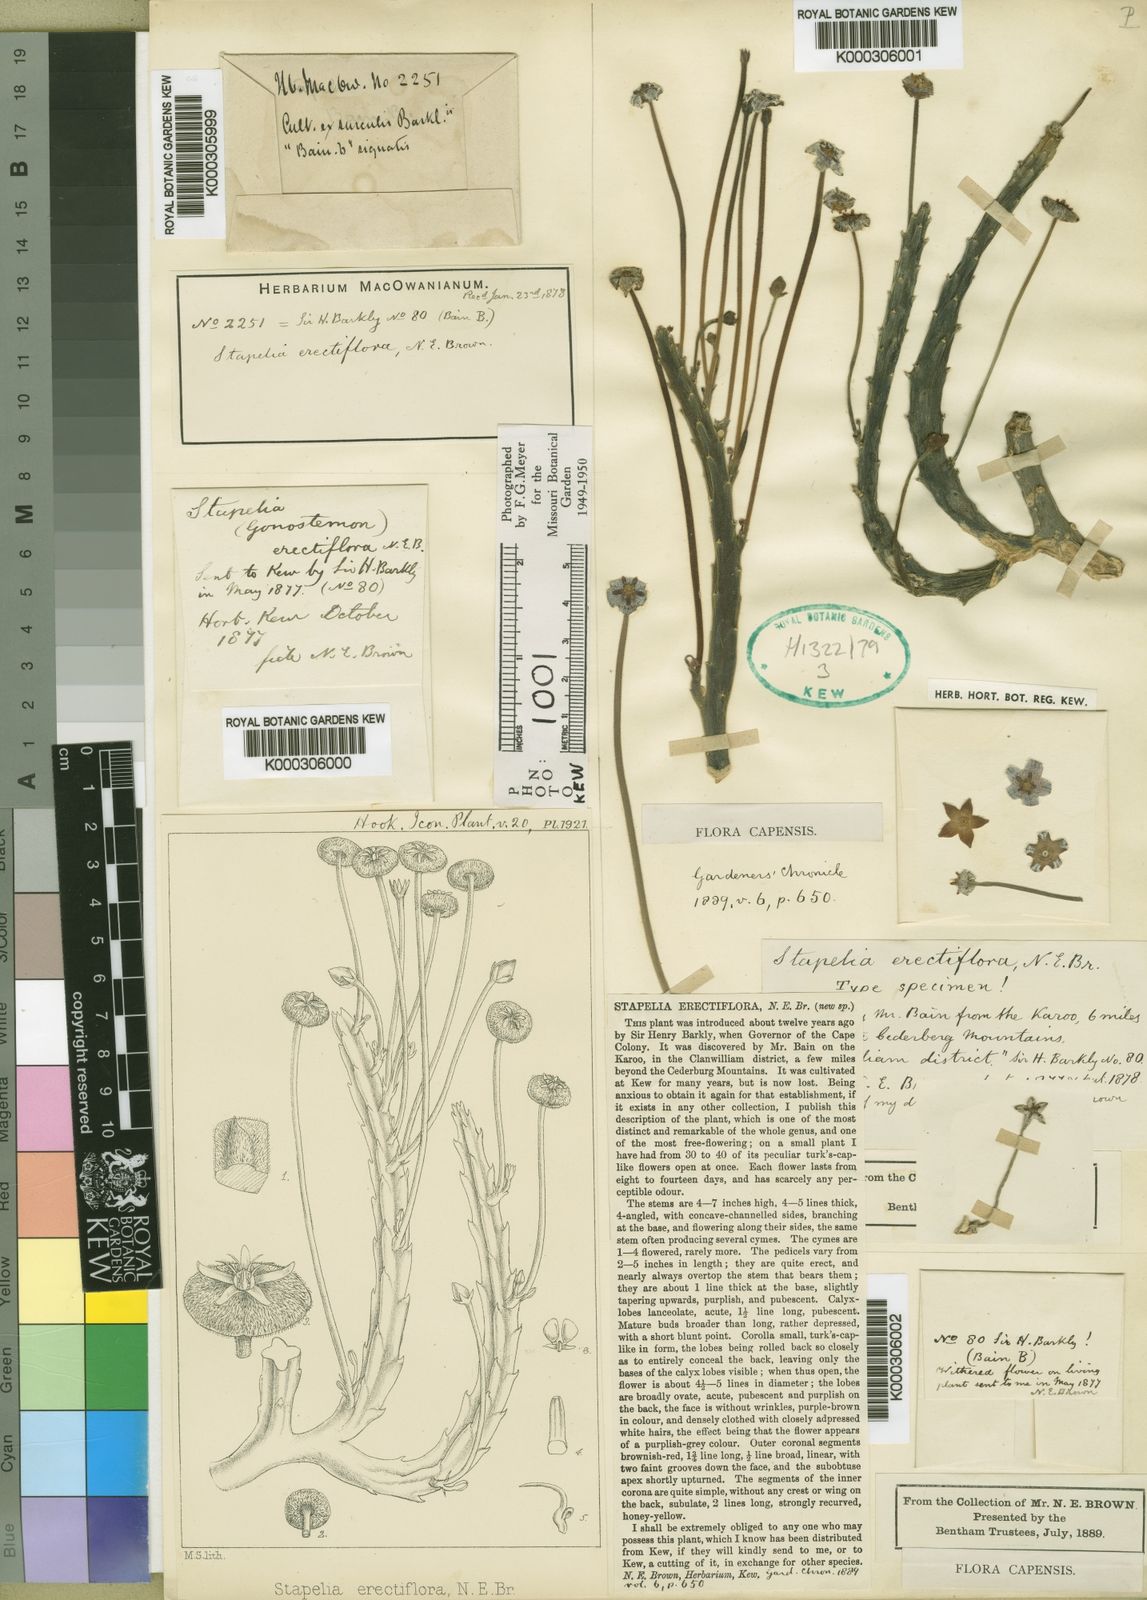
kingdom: Plantae
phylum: Tracheophyta
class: Magnoliopsida
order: Gentianales
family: Apocynaceae
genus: Ceropegia
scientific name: Ceropegia erectiflora
